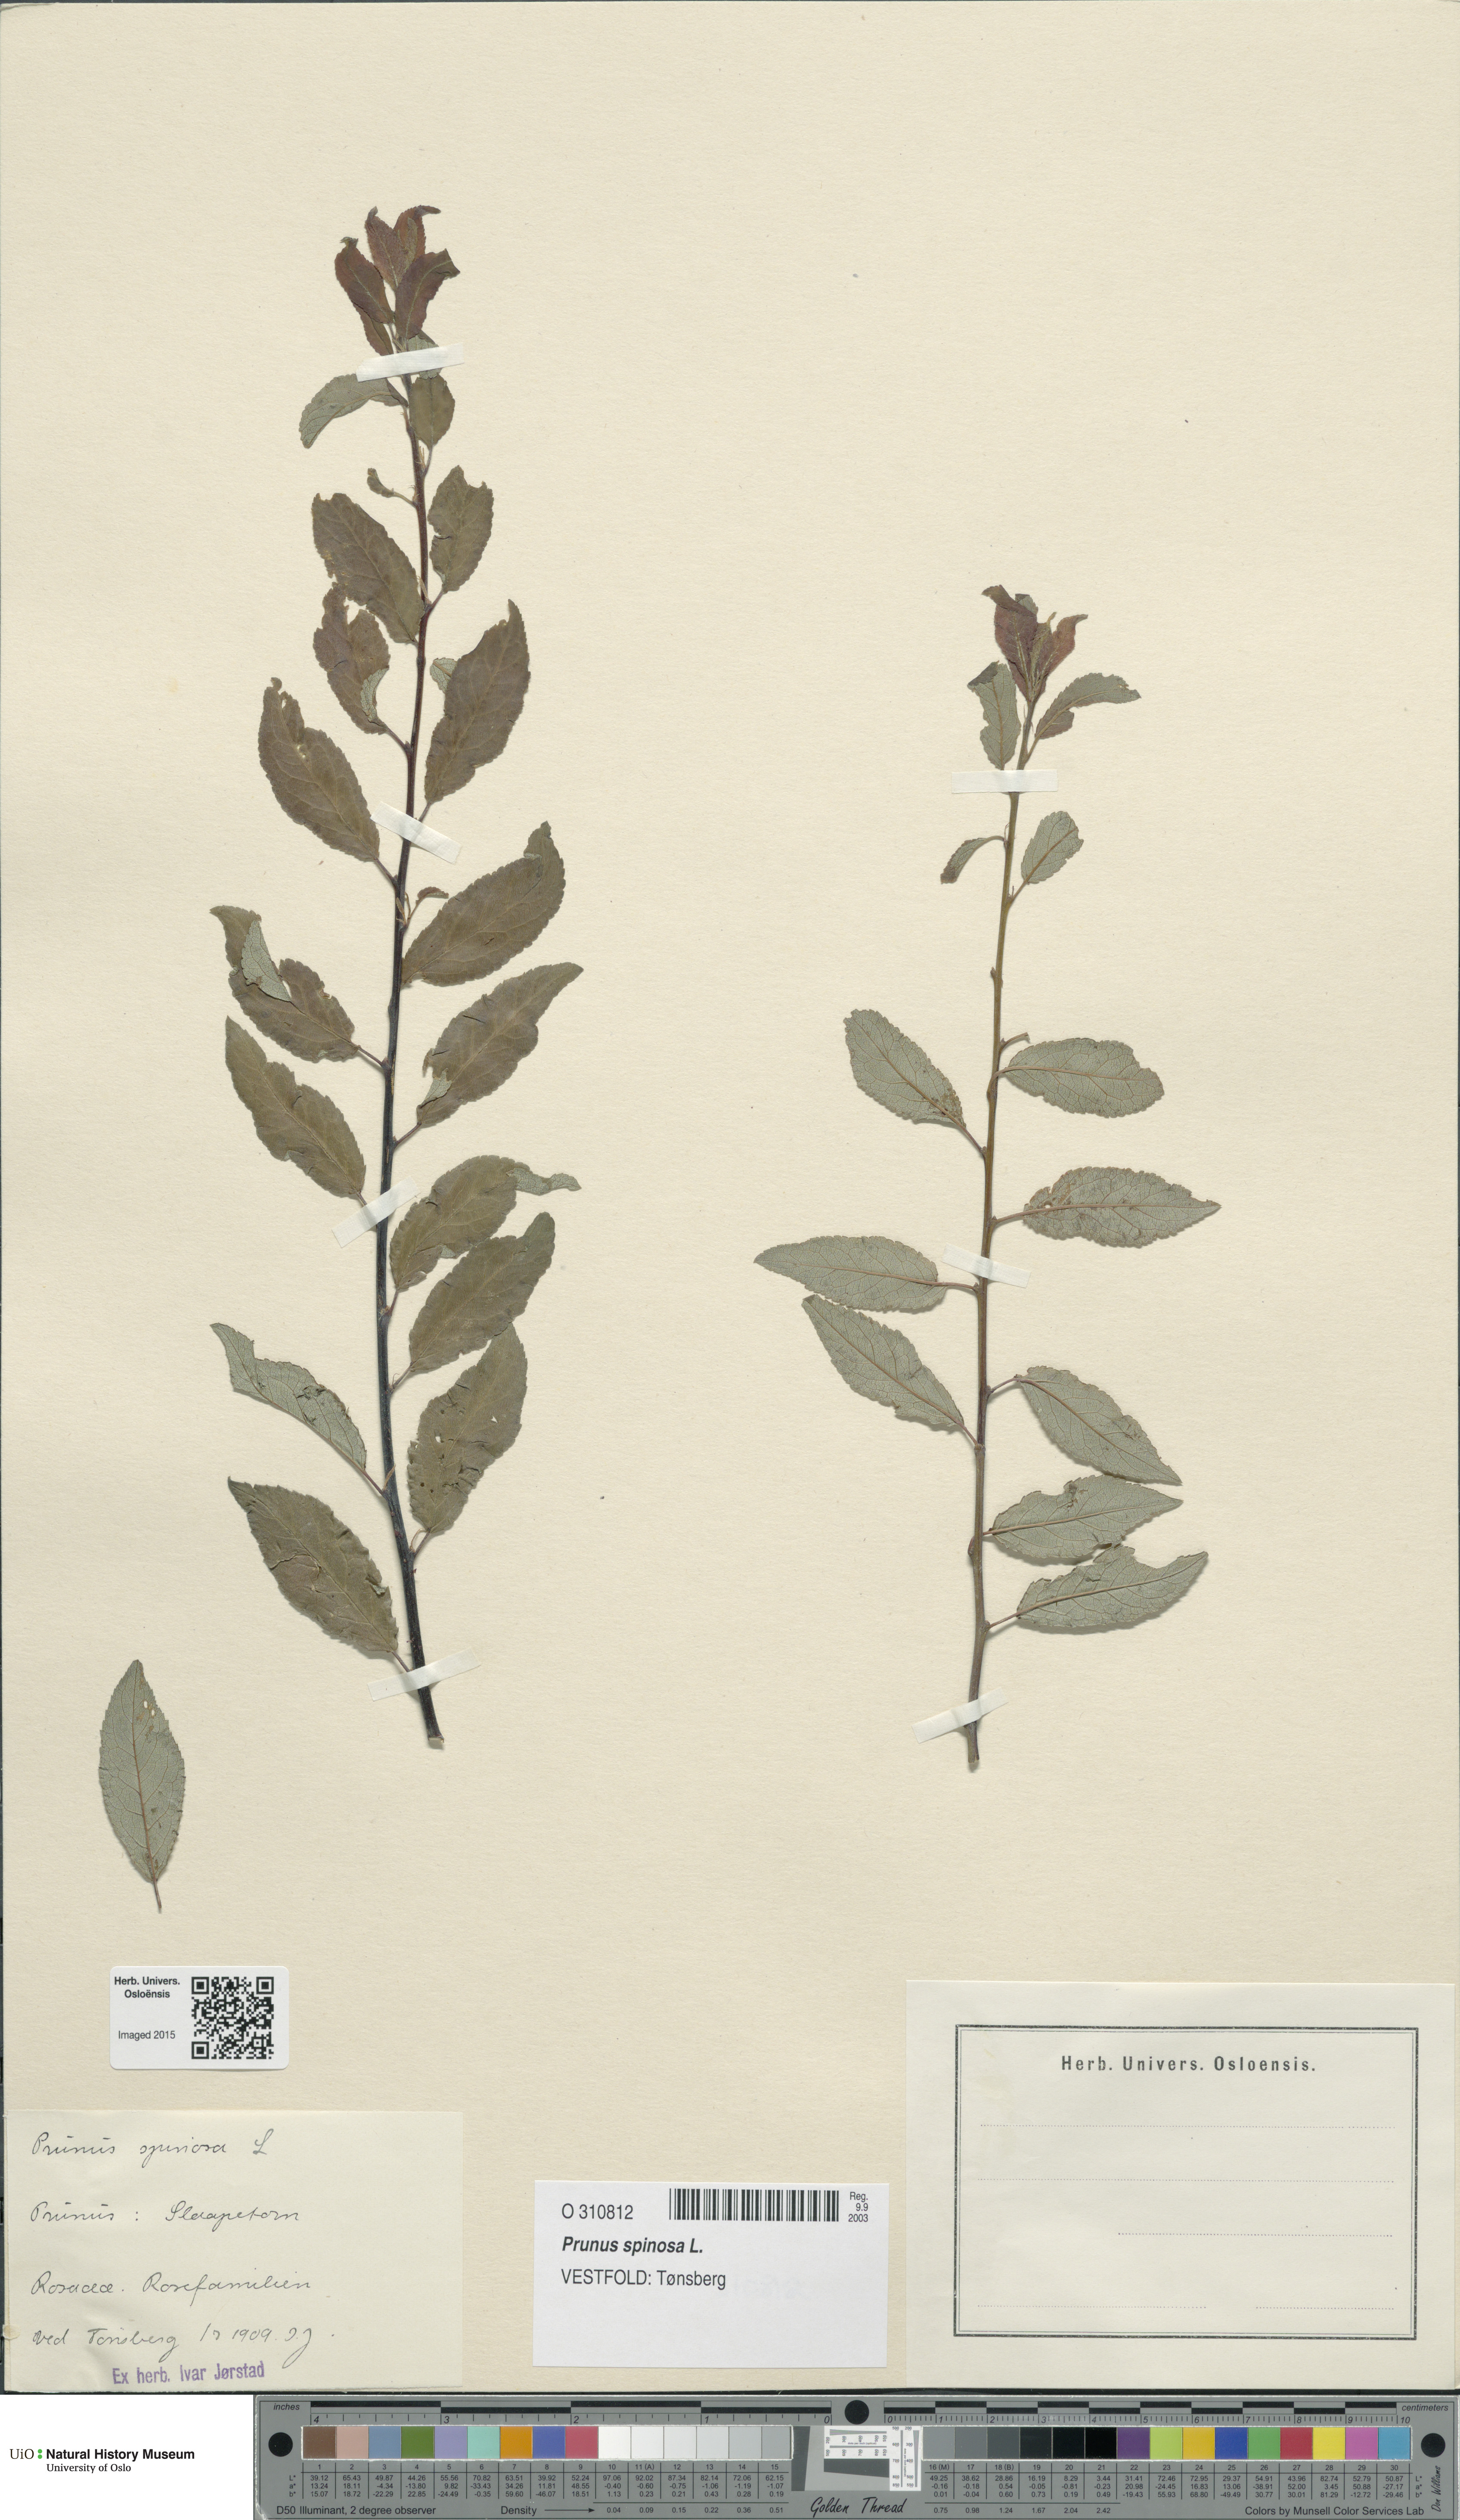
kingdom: Plantae
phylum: Tracheophyta
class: Magnoliopsida
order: Rosales
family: Rosaceae
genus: Prunus
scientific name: Prunus spinosa
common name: Blackthorn
